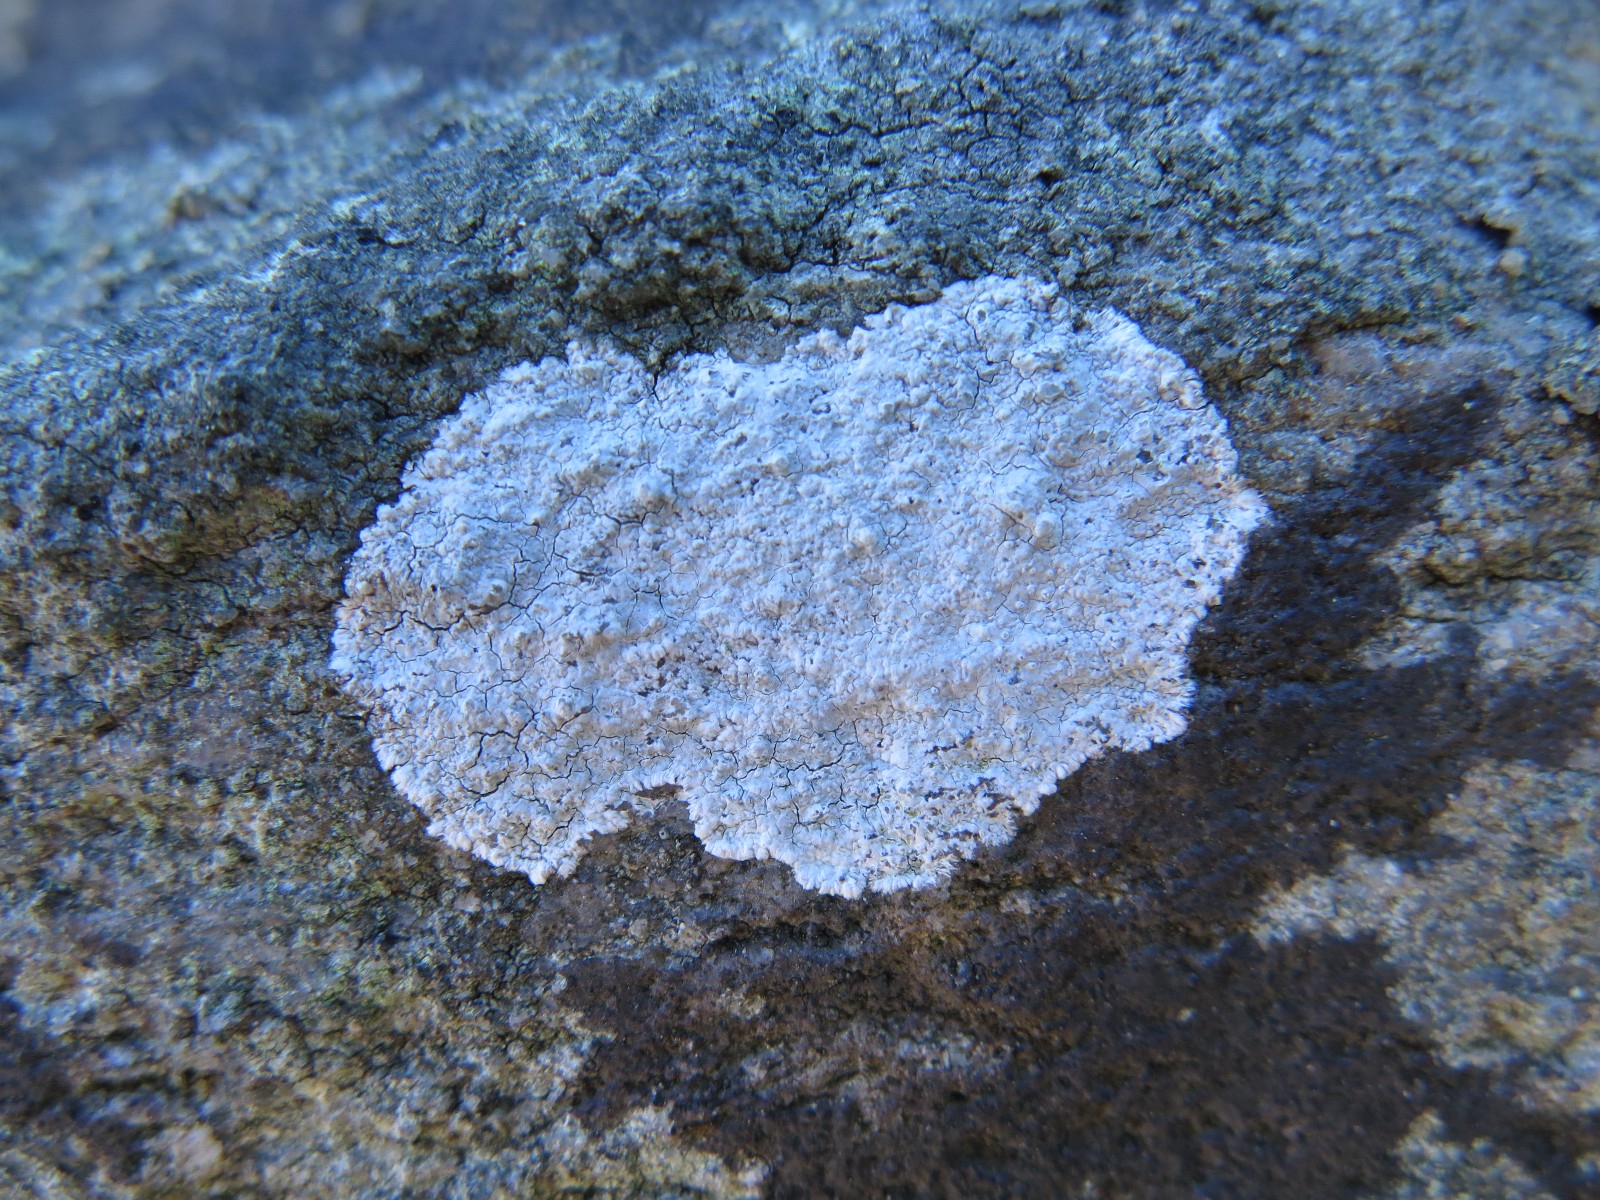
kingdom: Fungi
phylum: Ascomycota
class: Lecanoromycetes
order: Lecanorales
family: Lecanoraceae
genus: Glaucomaria
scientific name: Glaucomaria rupicola
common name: stengærde-kantskivelav
